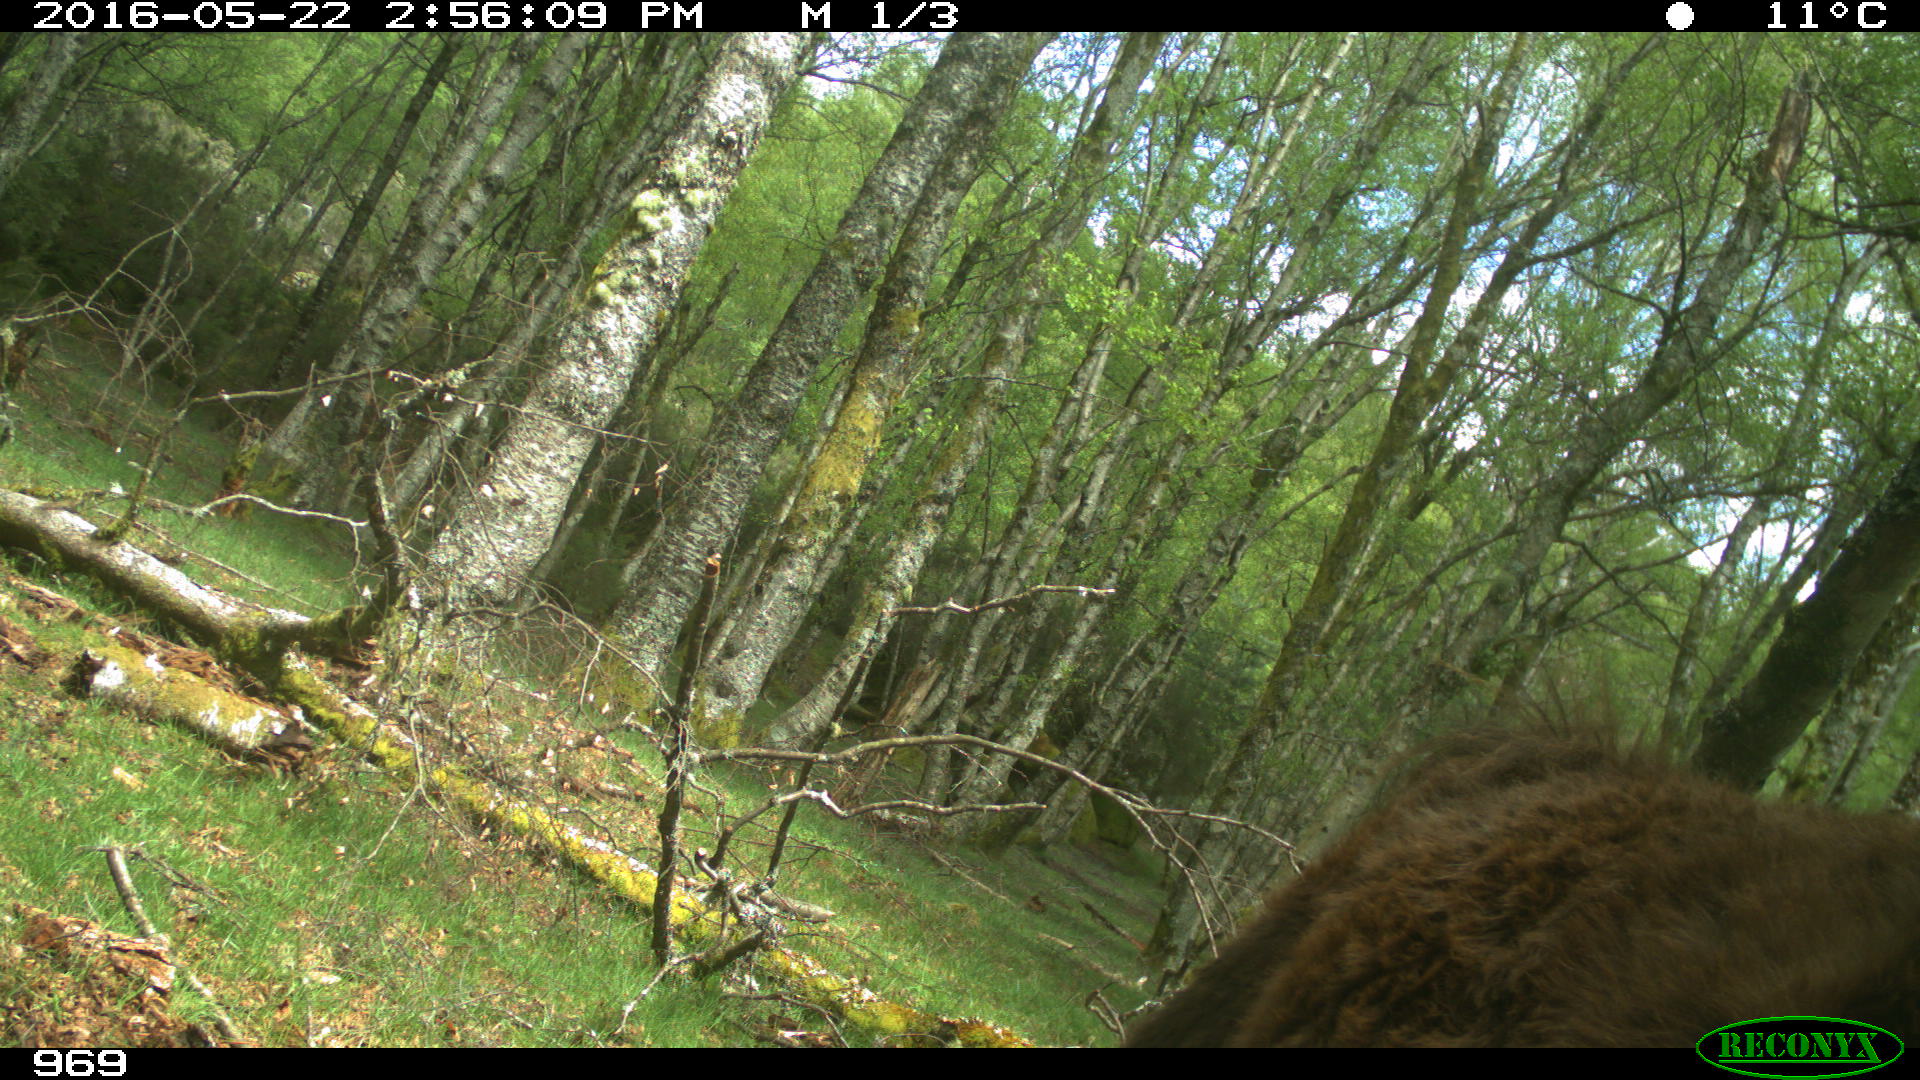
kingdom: Animalia
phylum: Chordata
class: Mammalia
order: Perissodactyla
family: Equidae
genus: Equus
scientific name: Equus caballus
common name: Horse
